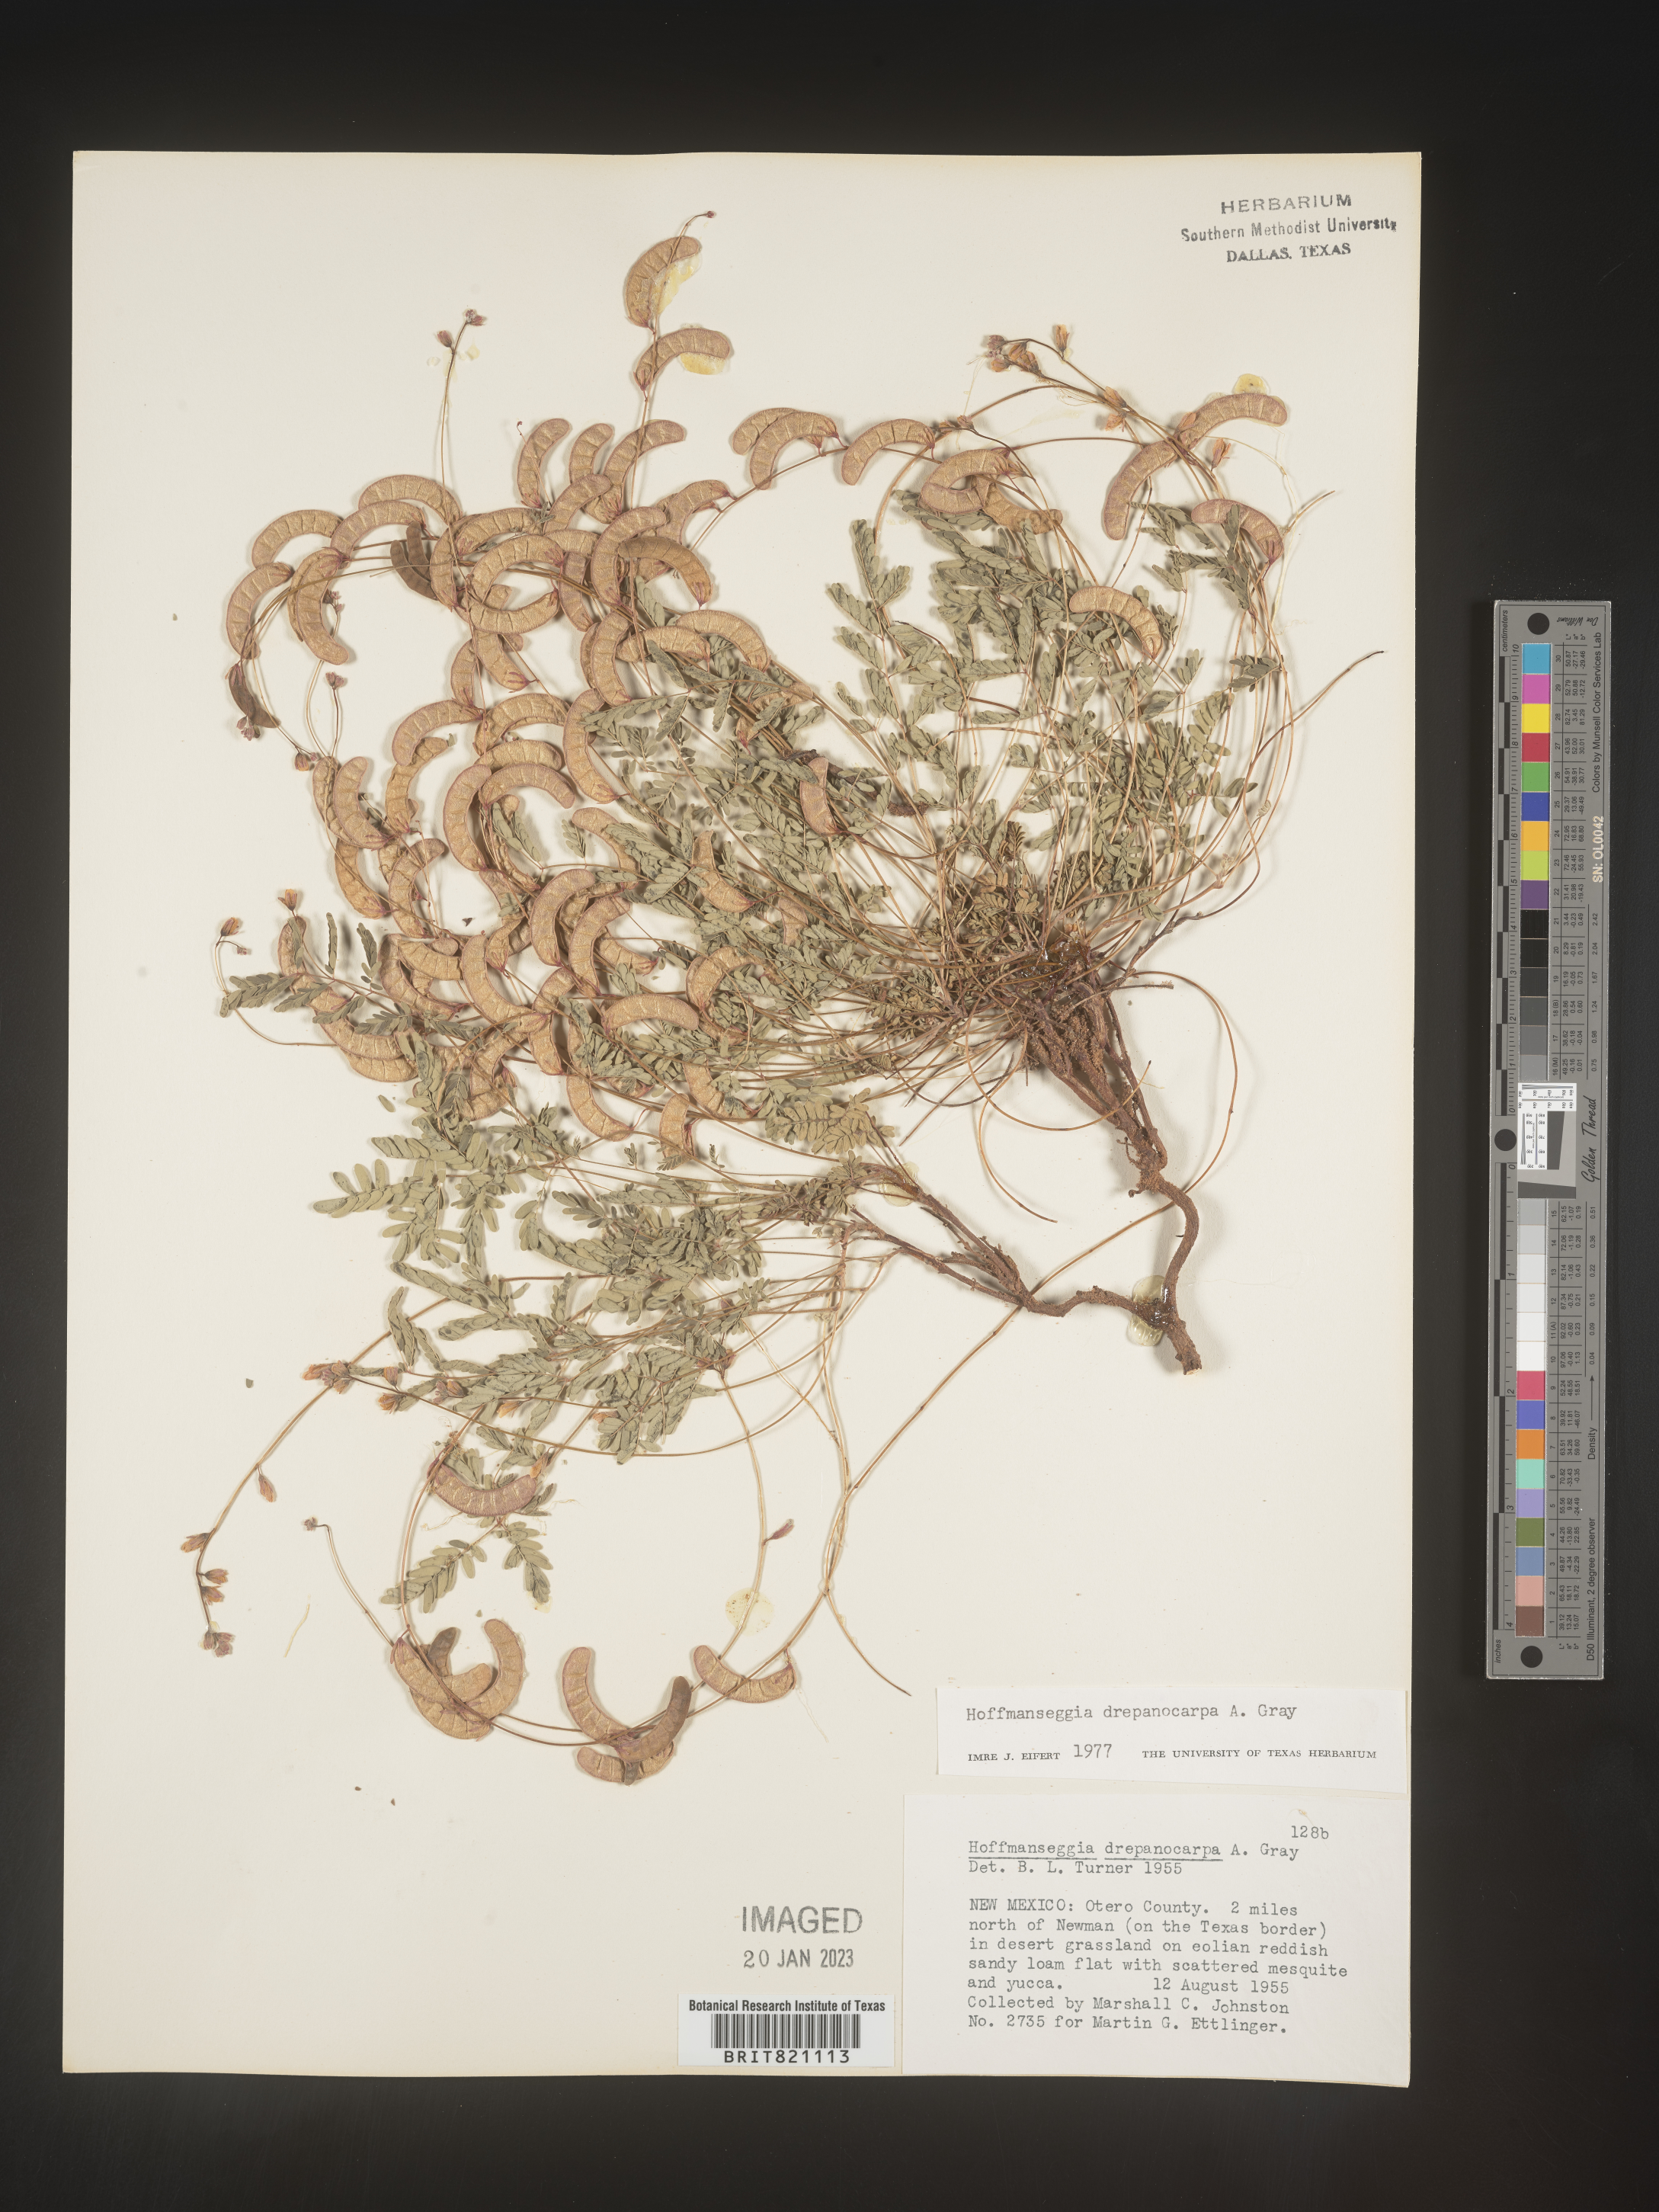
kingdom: Plantae
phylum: Tracheophyta
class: Magnoliopsida
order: Fabales
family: Fabaceae
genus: Hoffmannseggia
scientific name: Hoffmannseggia
